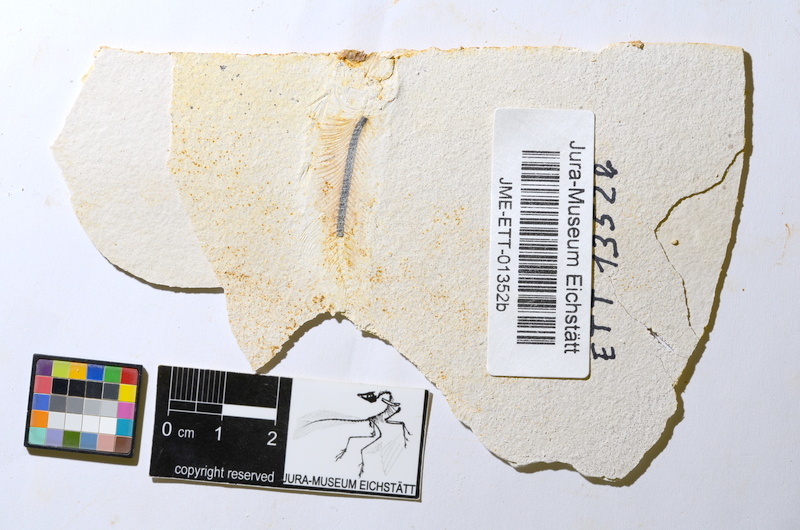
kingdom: Animalia
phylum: Chordata
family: Ascalaboidae
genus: Ebertichthys
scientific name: Ebertichthys ettlingensis
